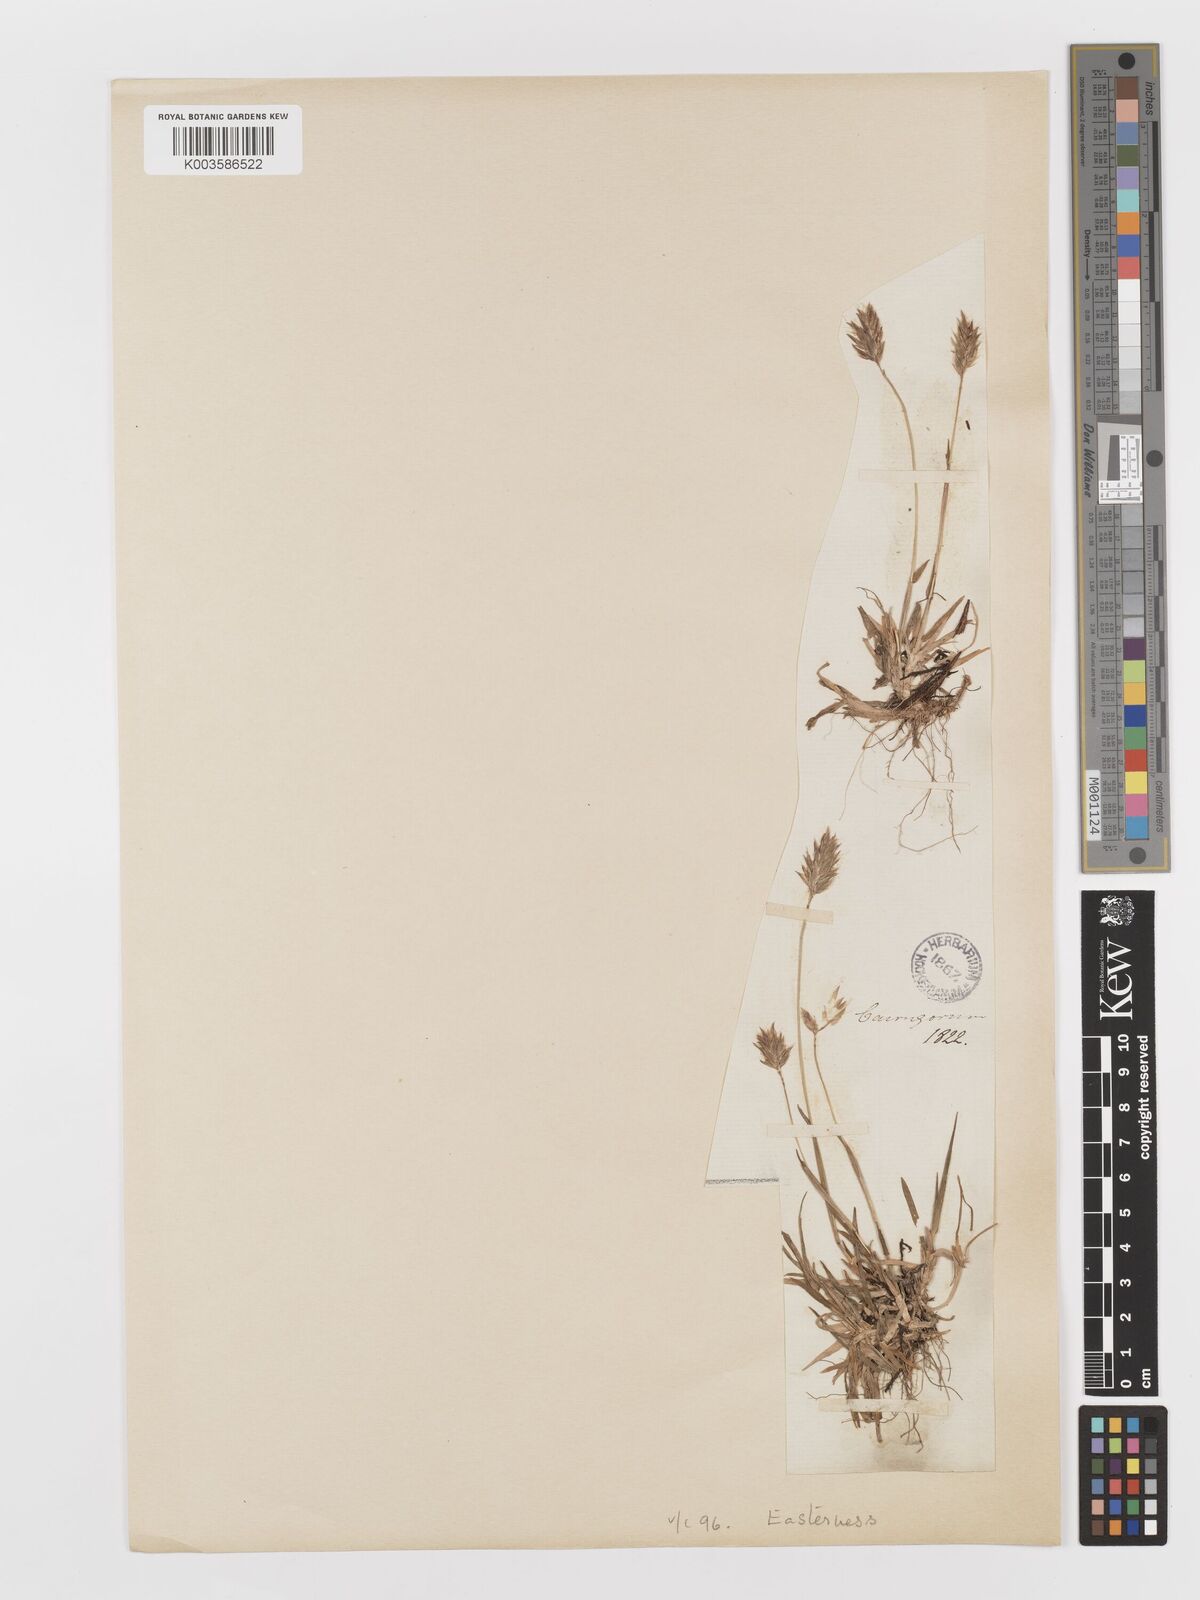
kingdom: Plantae
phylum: Tracheophyta
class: Liliopsida
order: Poales
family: Poaceae
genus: Anthoxanthum
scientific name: Anthoxanthum odoratum
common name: Sweet vernalgrass
